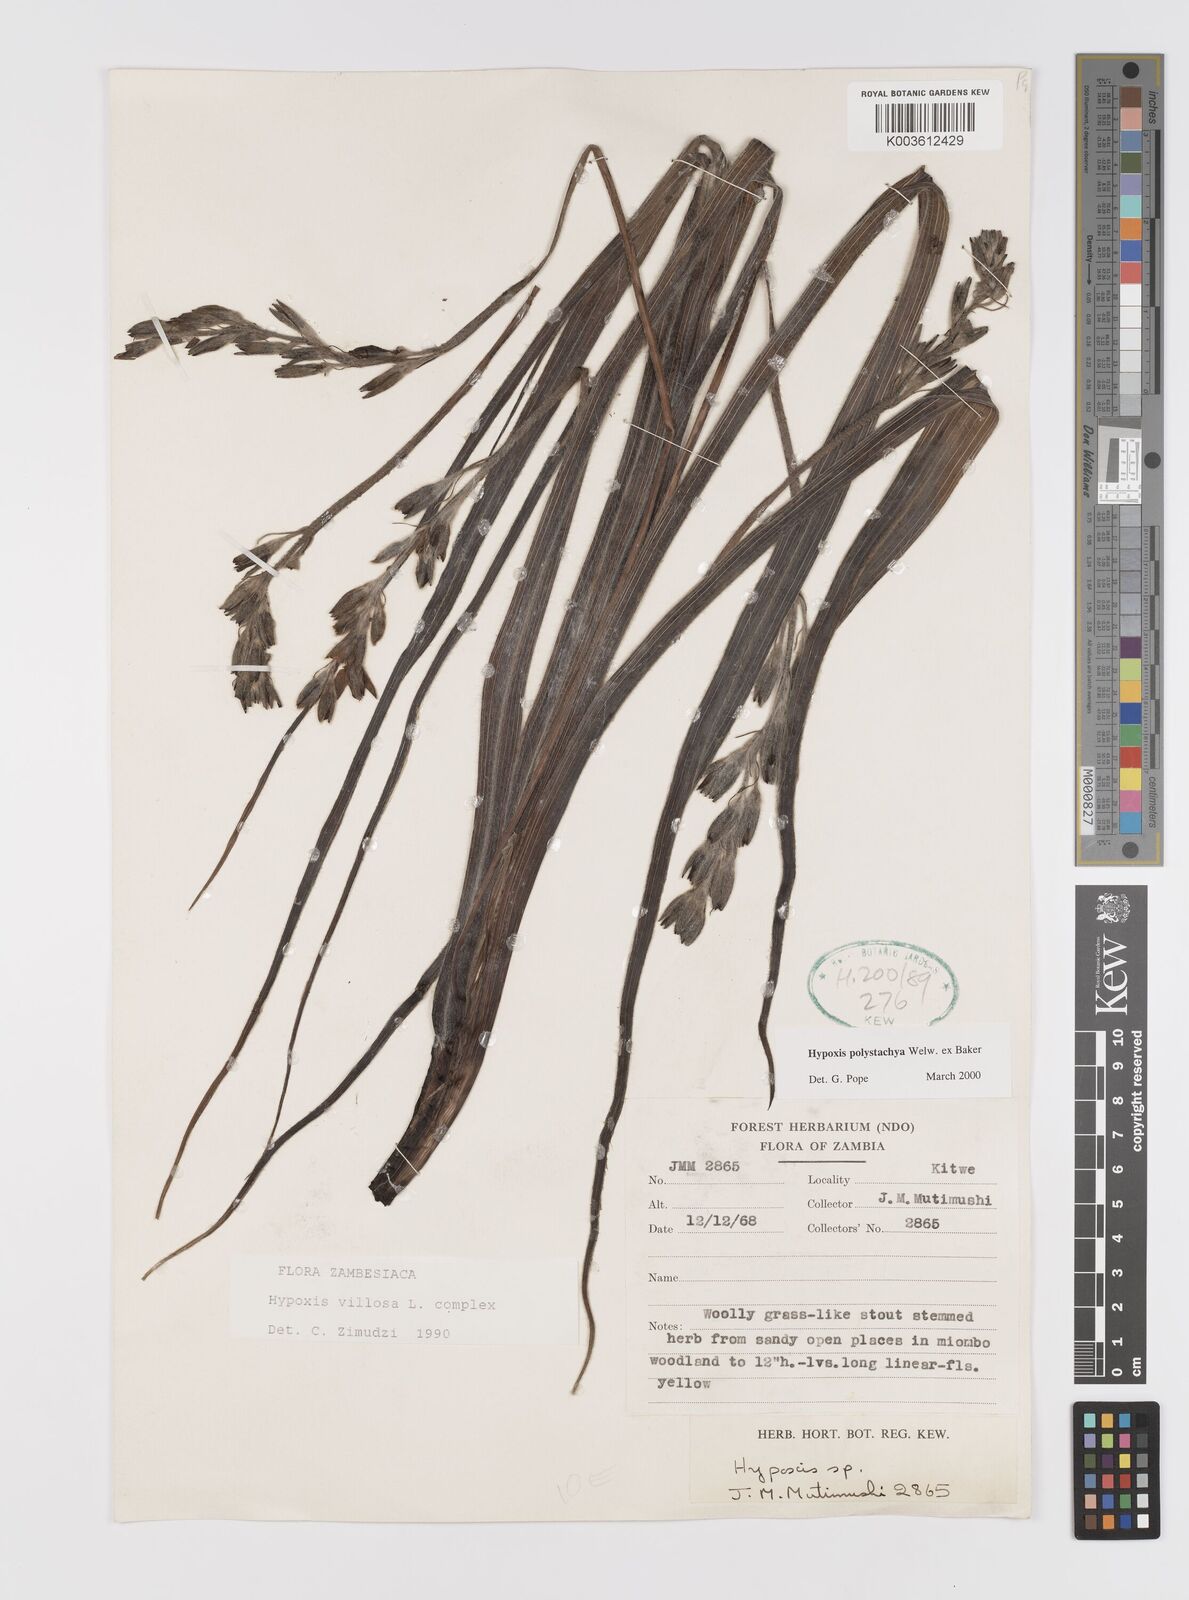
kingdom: Plantae
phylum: Tracheophyta
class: Liliopsida
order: Asparagales
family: Hypoxidaceae
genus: Hypoxis
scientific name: Hypoxis polystachya
